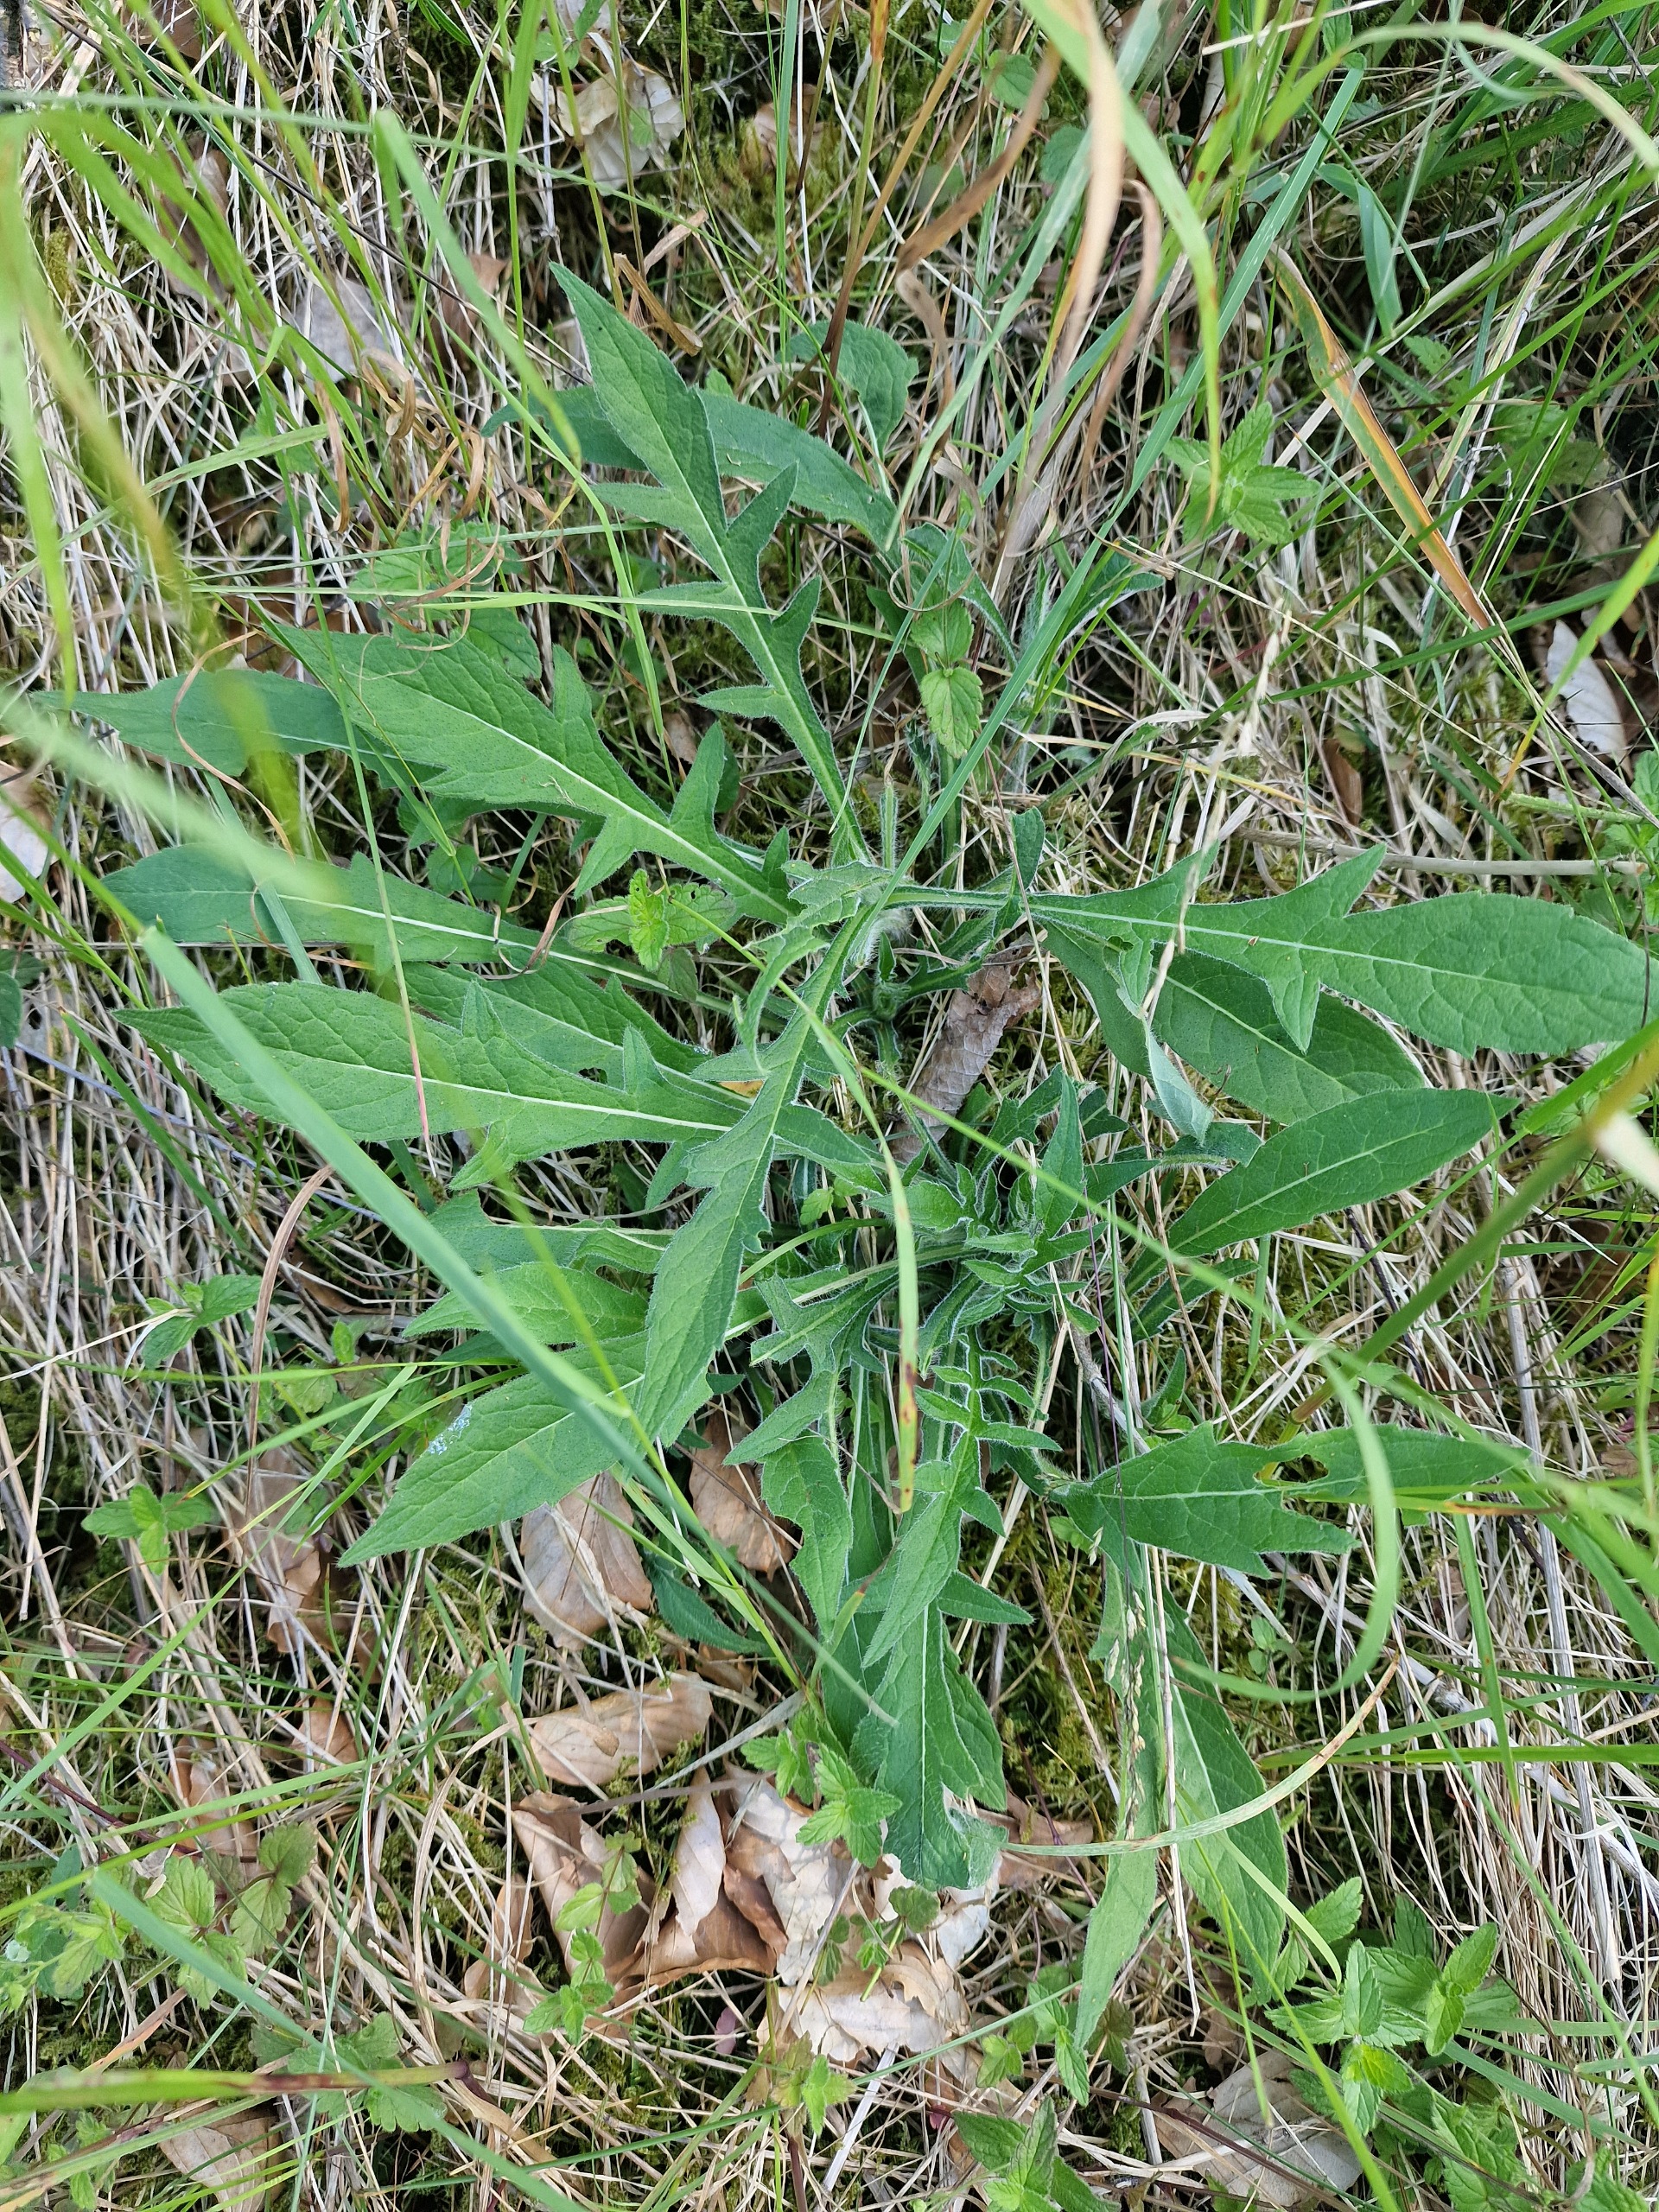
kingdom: Plantae
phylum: Tracheophyta
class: Magnoliopsida
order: Dipsacales
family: Caprifoliaceae
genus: Knautia
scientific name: Knautia arvensis
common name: Blåhat
